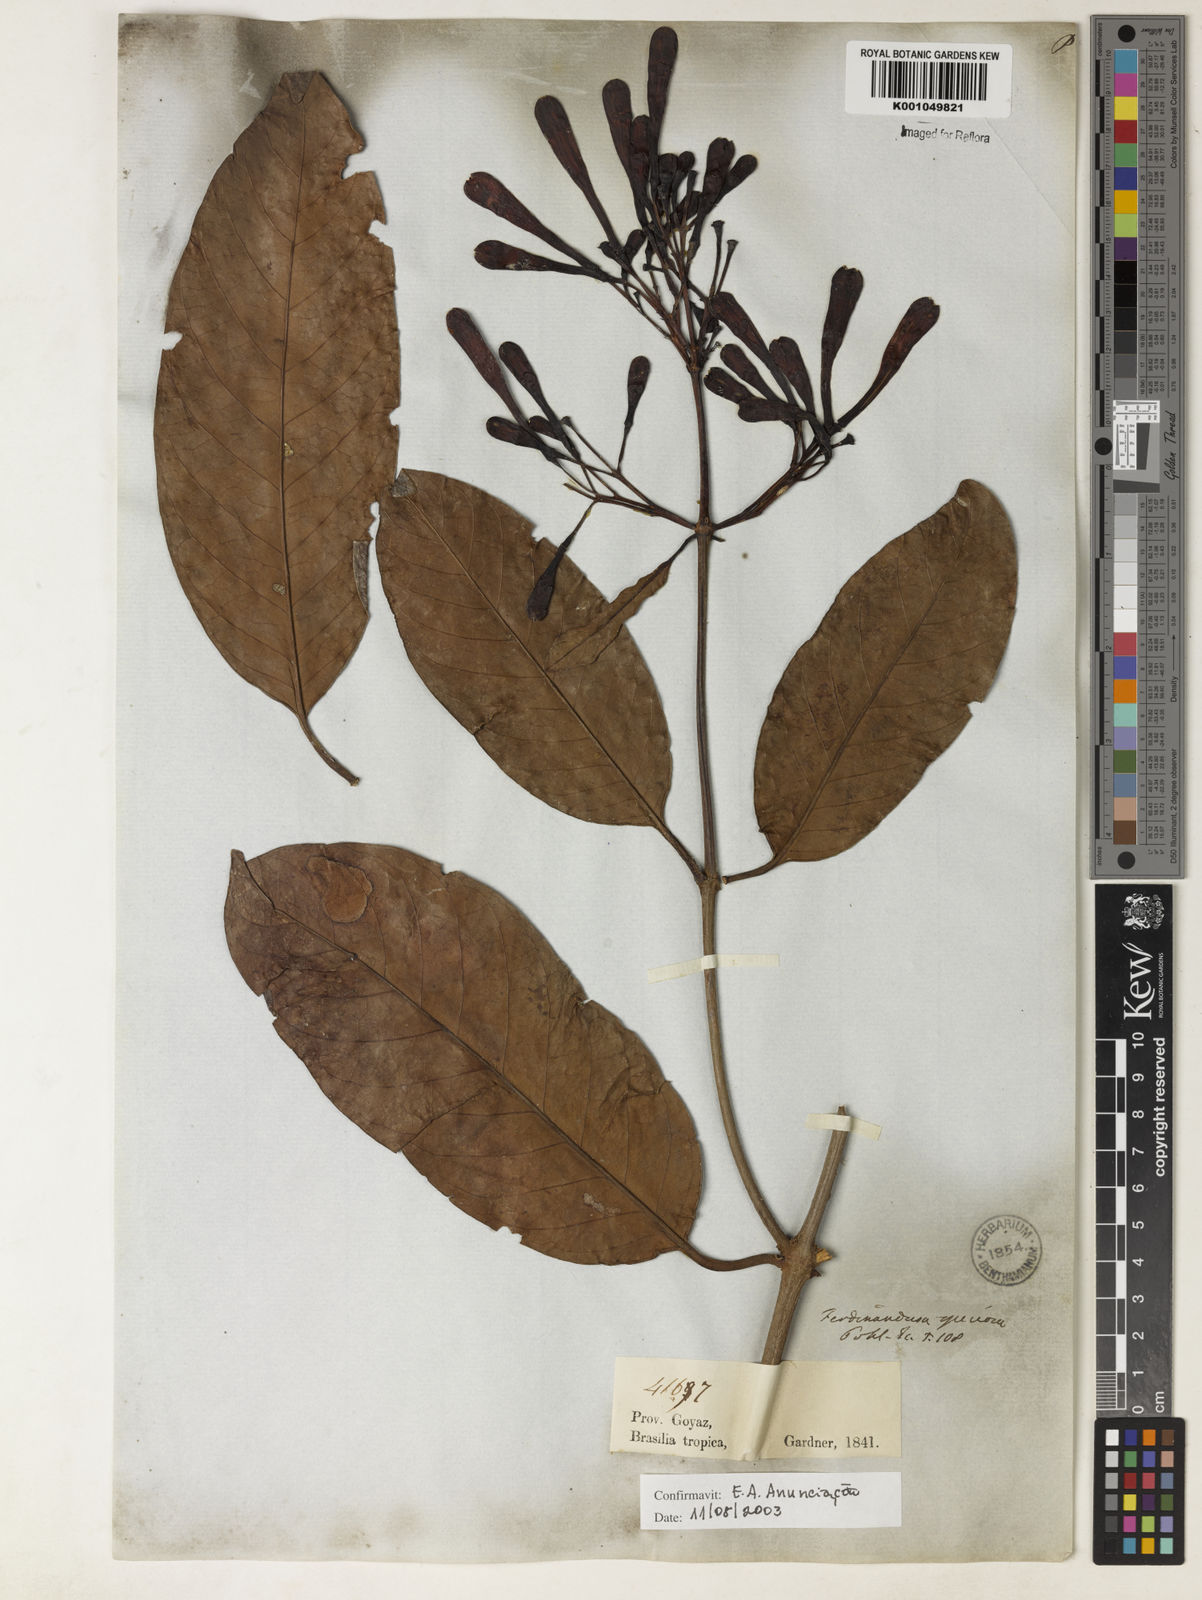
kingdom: Plantae
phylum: Tracheophyta
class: Magnoliopsida
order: Gentianales
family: Rubiaceae
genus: Ferdinandusa
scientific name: Ferdinandusa speciosa
